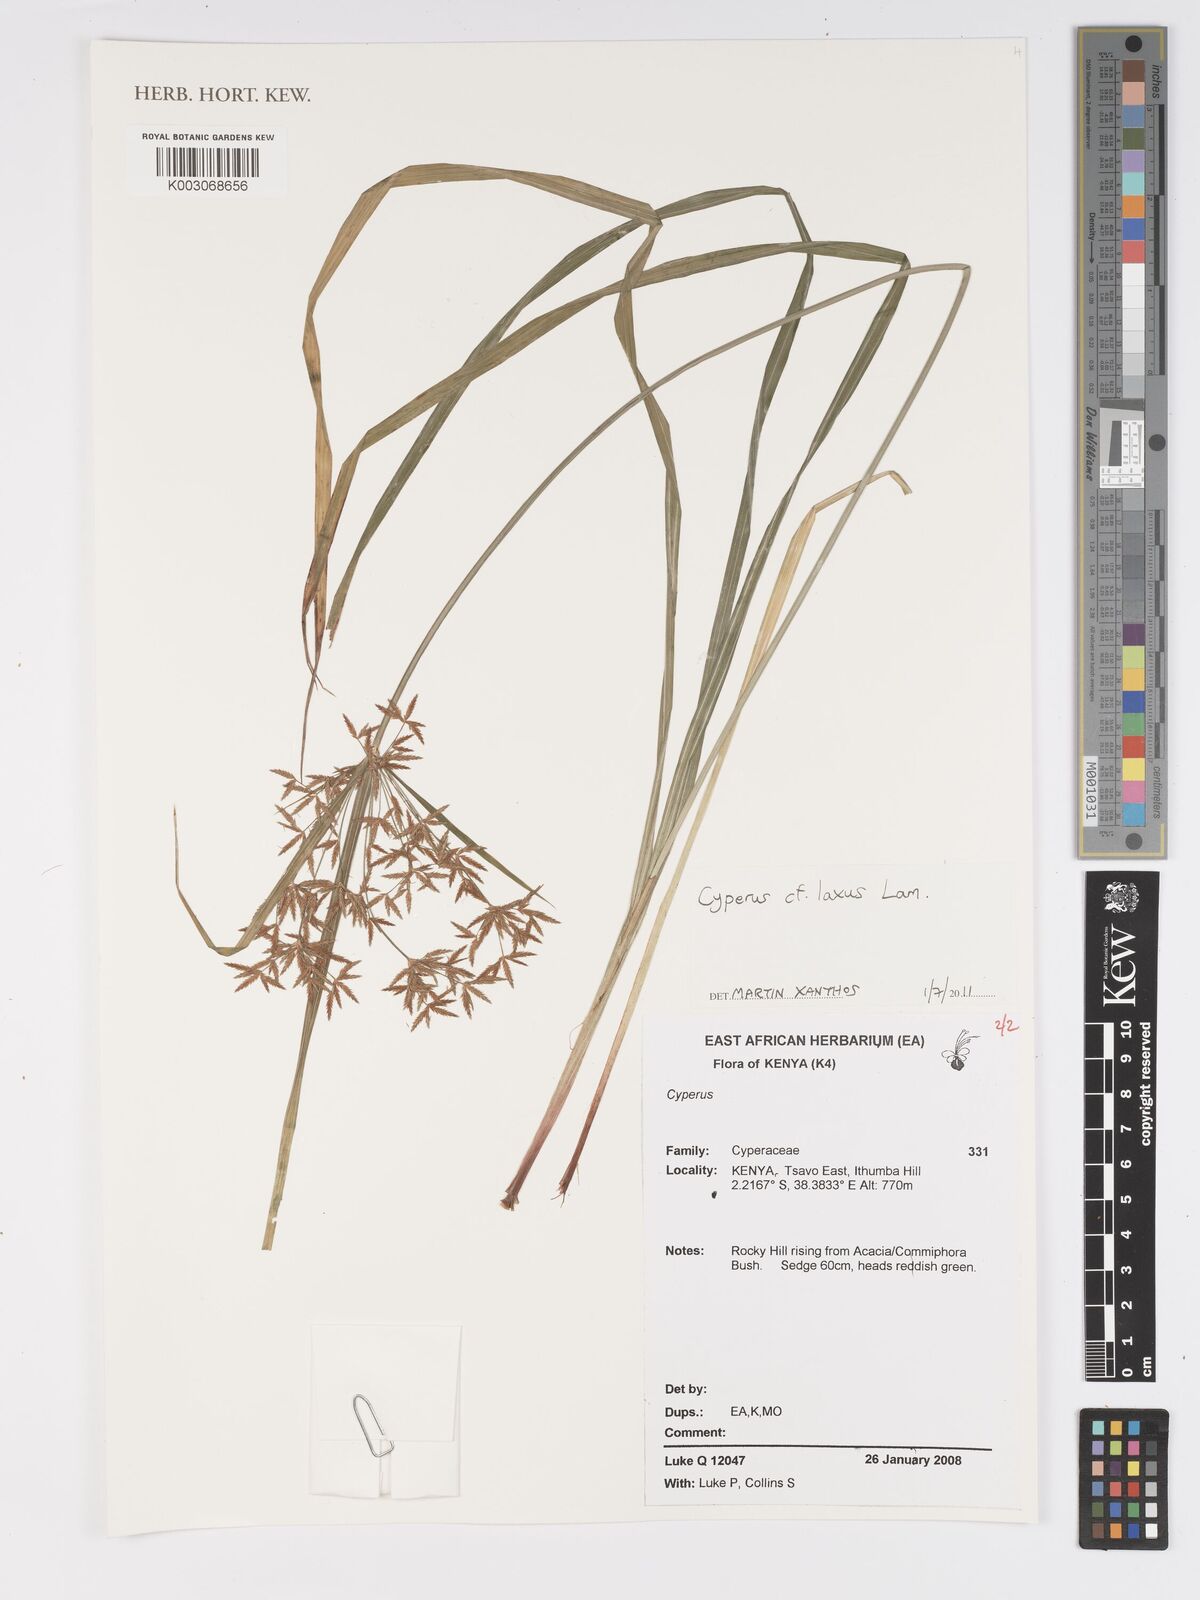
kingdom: Plantae
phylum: Tracheophyta
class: Liliopsida
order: Poales
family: Cyperaceae
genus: Cyperus
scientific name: Cyperus laxus
